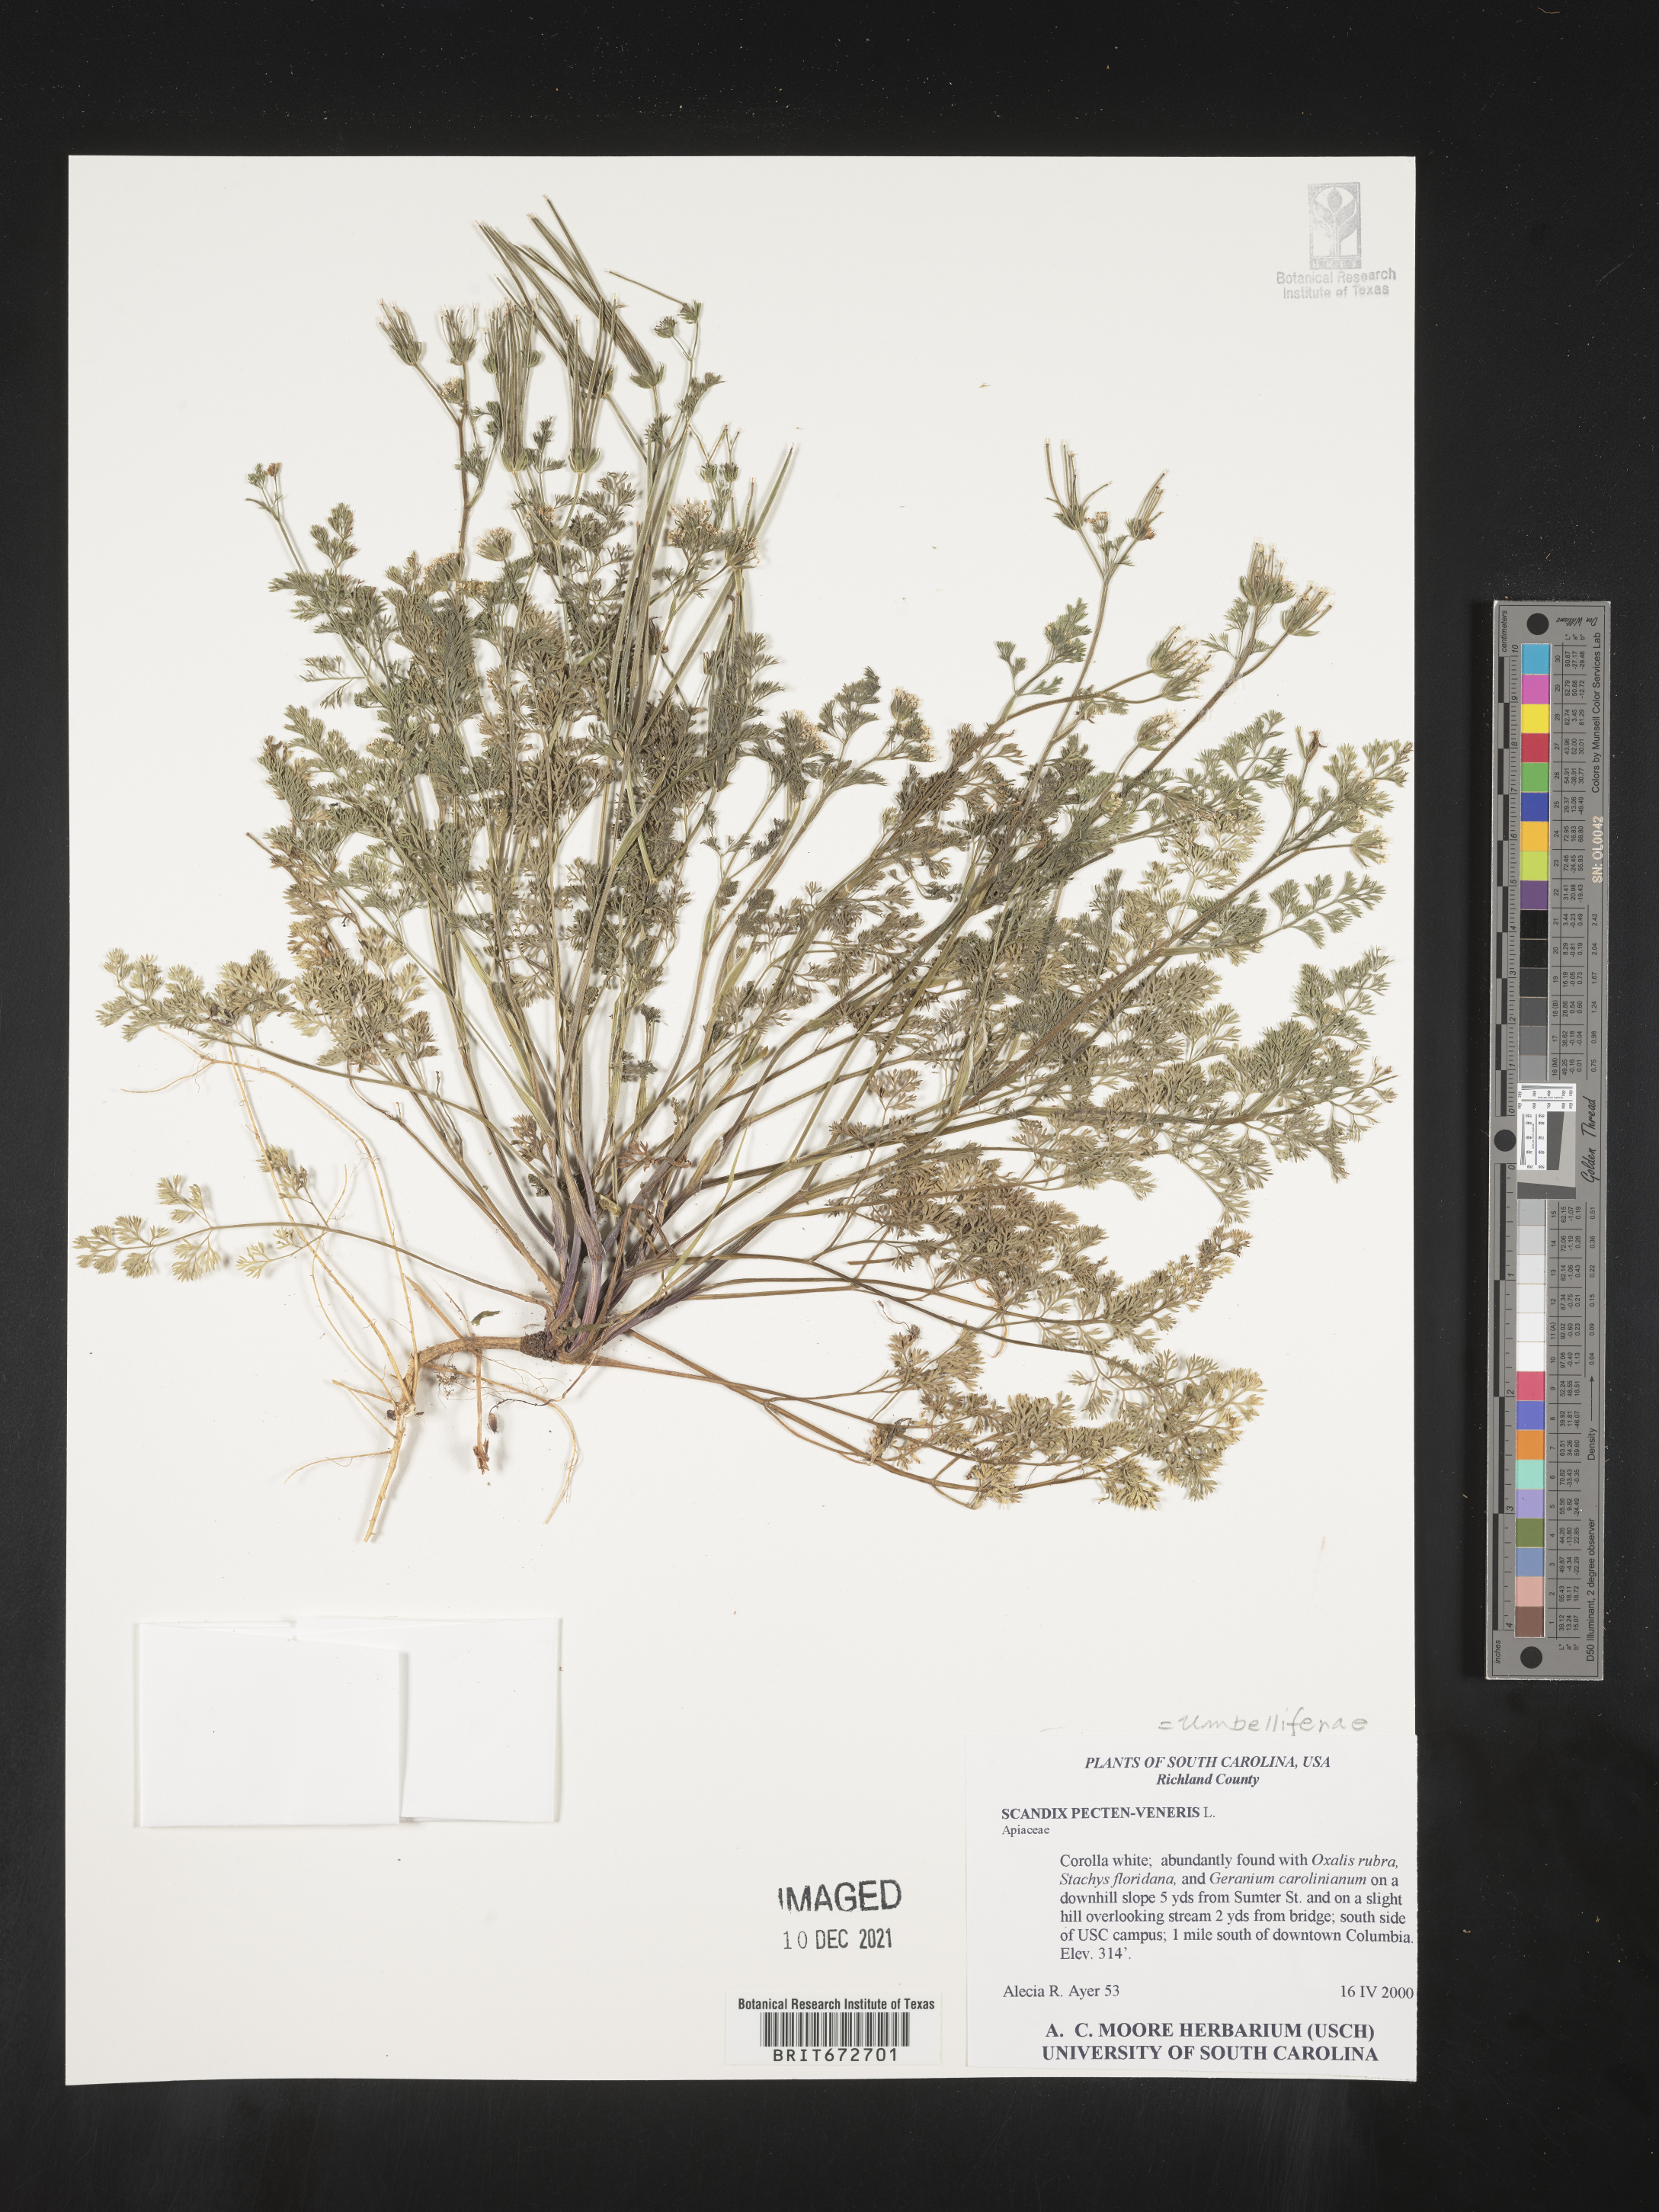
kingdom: Plantae
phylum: Tracheophyta
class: Magnoliopsida
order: Apiales
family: Apiaceae
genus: Scandix
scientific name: Scandix
